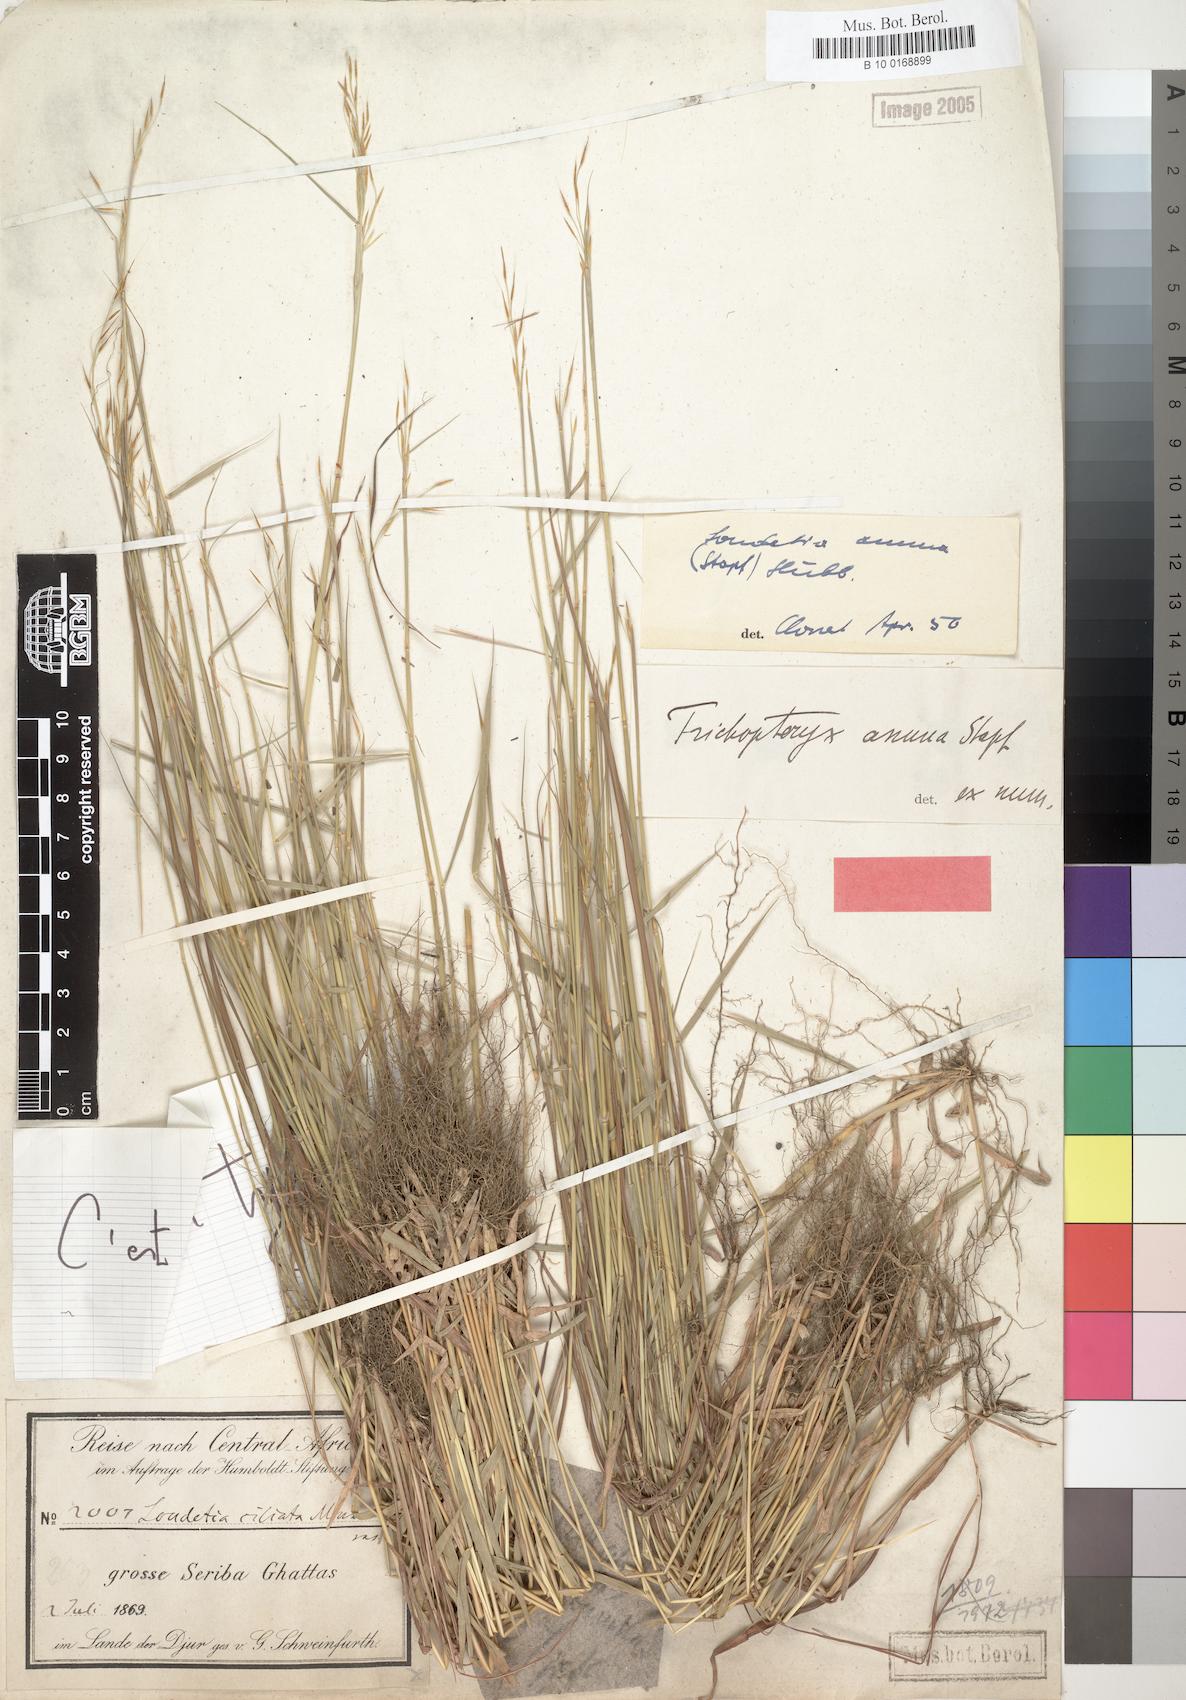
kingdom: Plantae
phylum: Tracheophyta
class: Liliopsida
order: Poales
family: Poaceae
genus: Loudetia
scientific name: Loudetia annua
